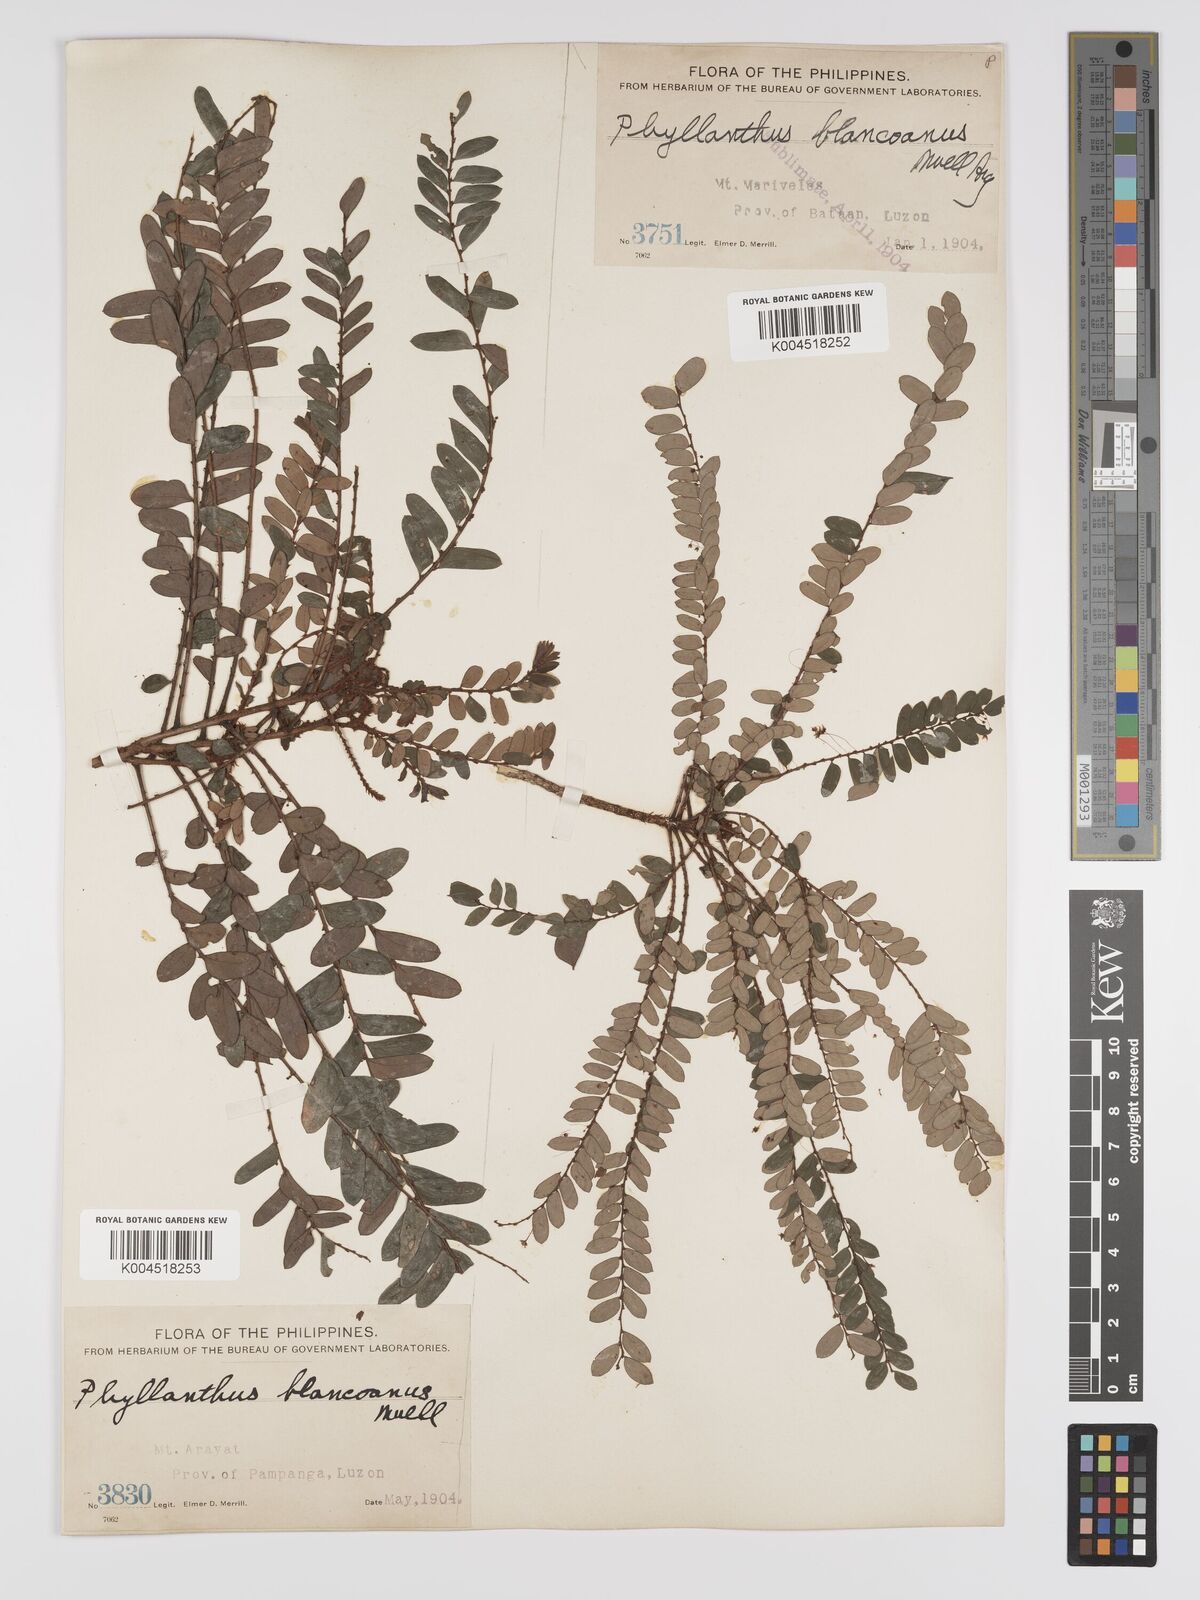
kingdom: Plantae
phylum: Tracheophyta
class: Magnoliopsida
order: Malpighiales
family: Phyllanthaceae
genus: Phyllanthus
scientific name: Phyllanthus blancoanus
